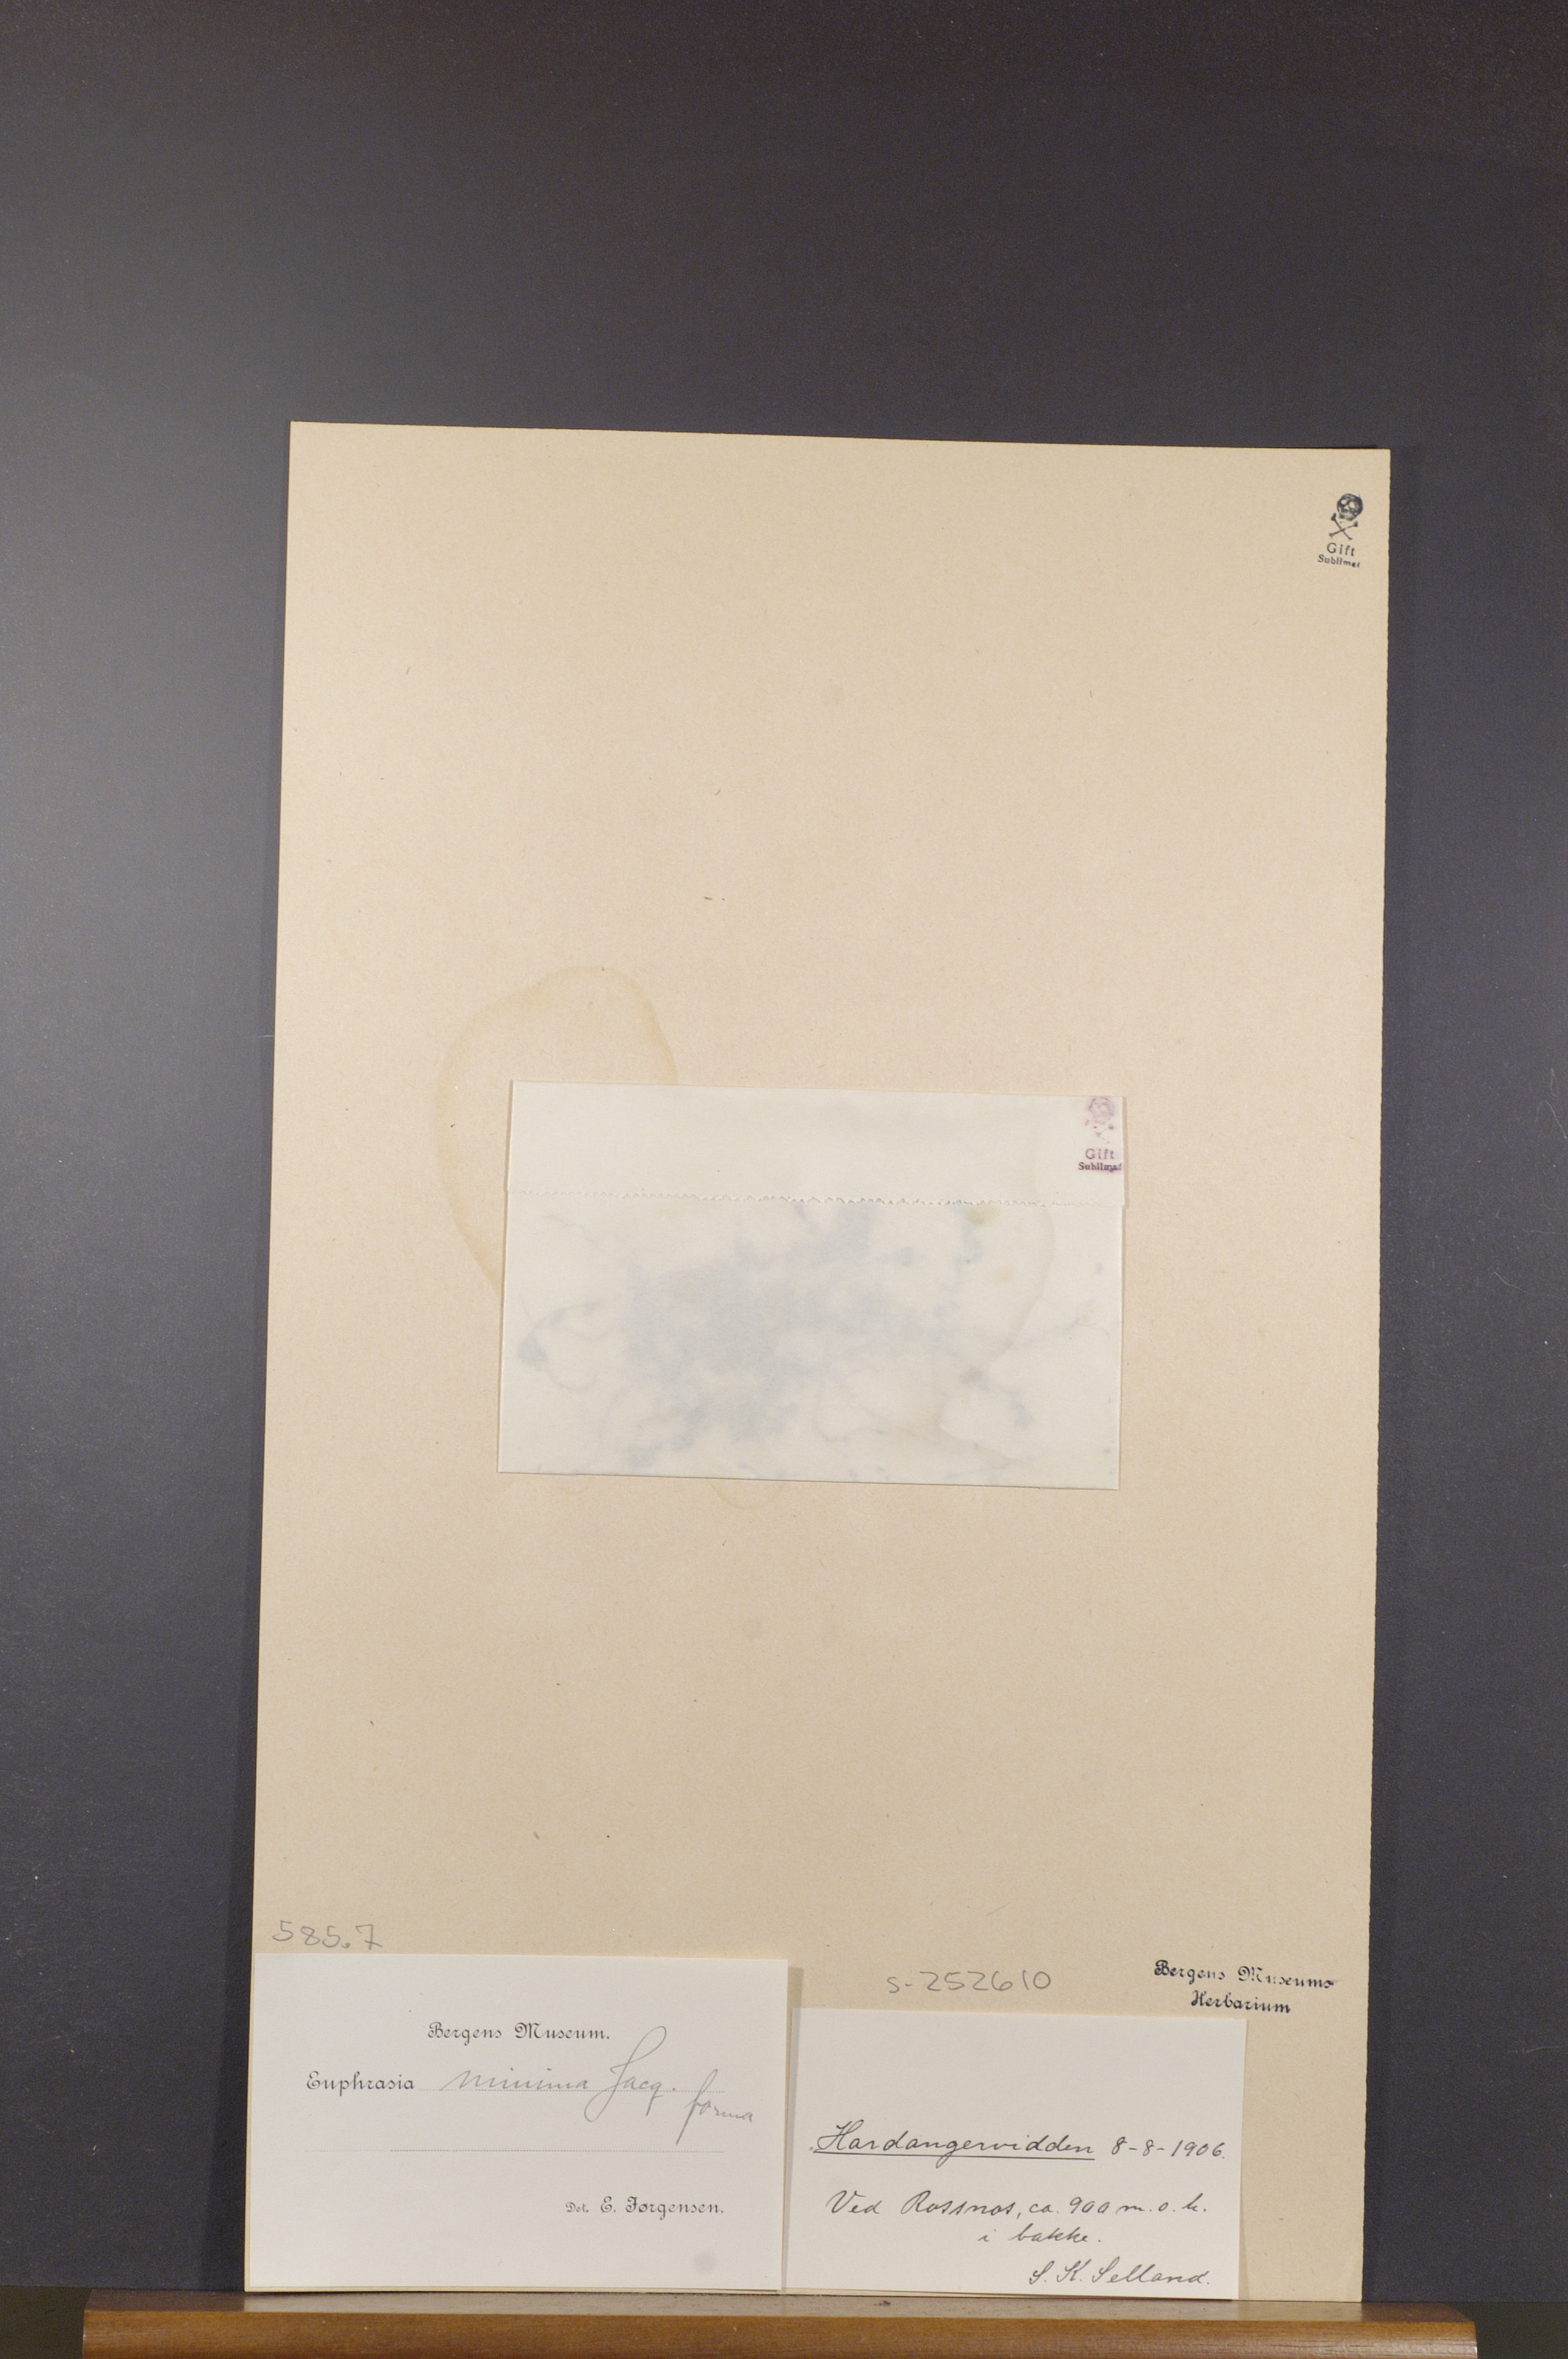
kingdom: Plantae
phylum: Tracheophyta
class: Magnoliopsida
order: Lamiales
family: Orobanchaceae
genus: Euphrasia
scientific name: Euphrasia minima
